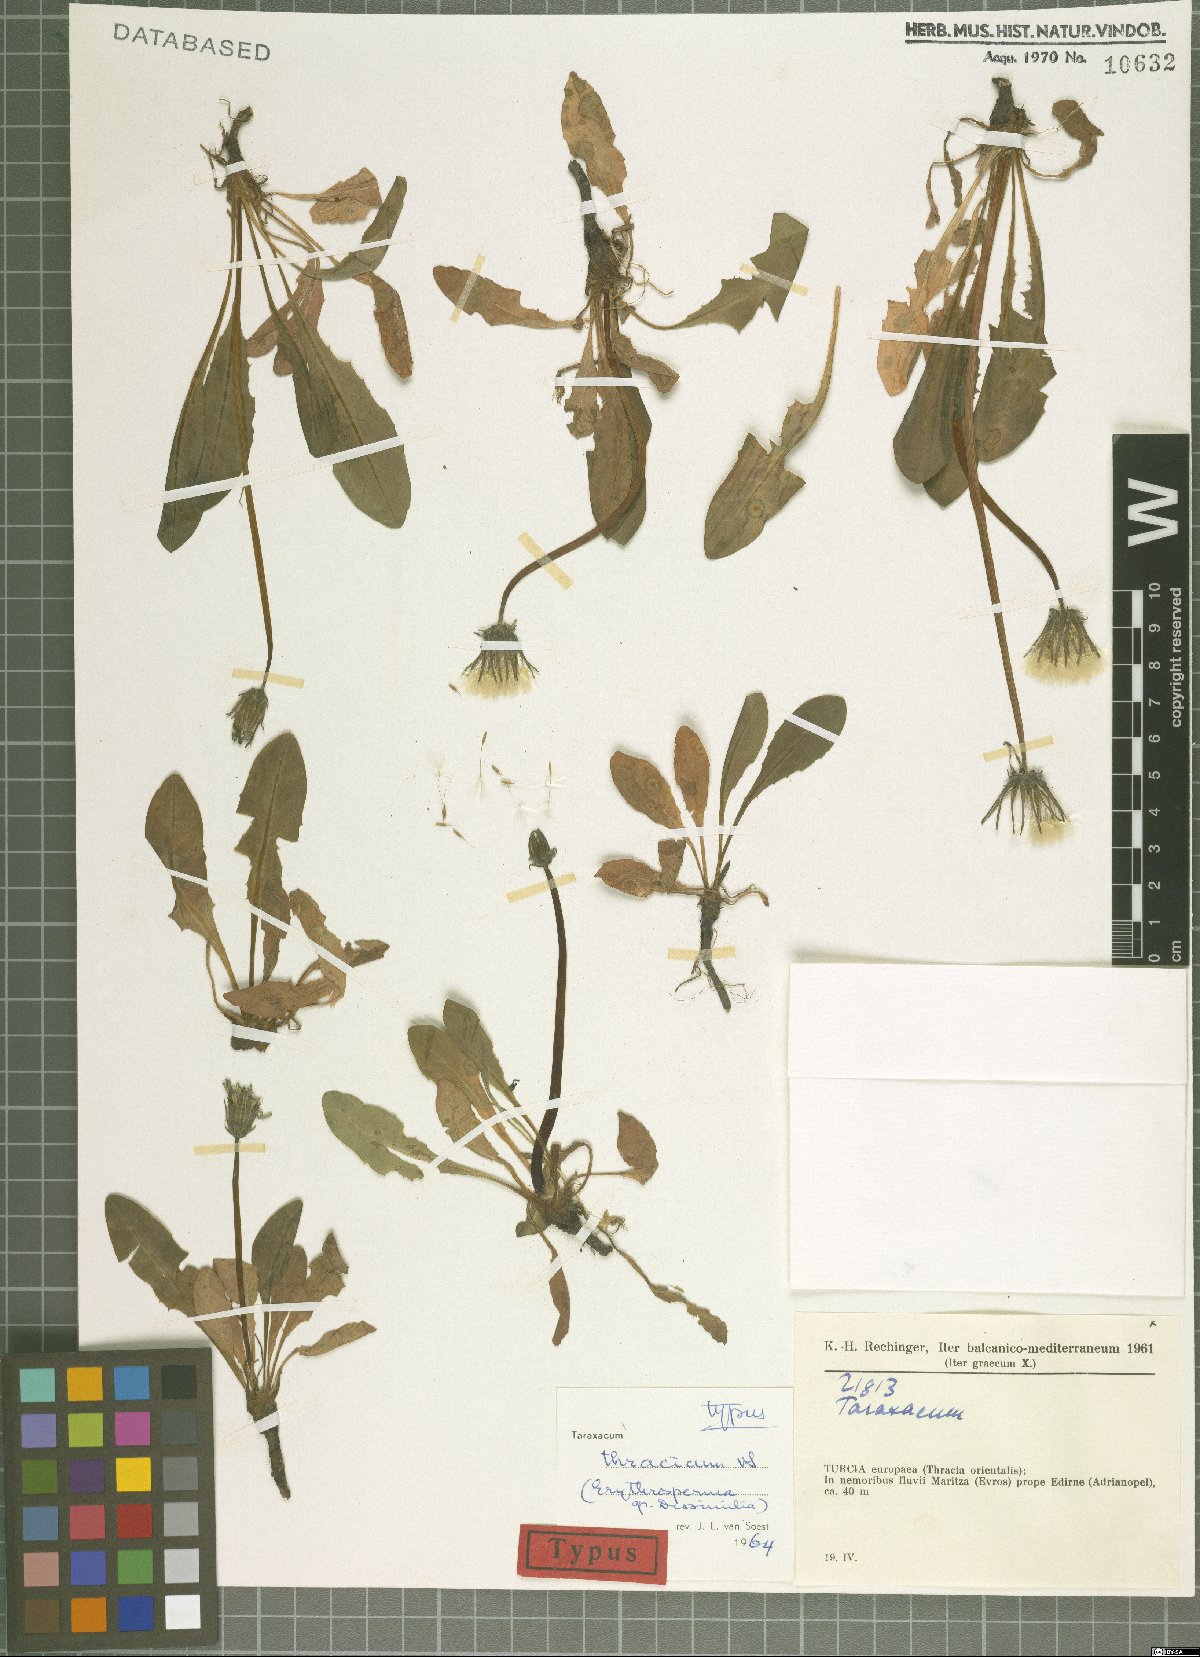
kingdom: Plantae
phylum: Tracheophyta
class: Magnoliopsida
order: Asterales
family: Asteraceae
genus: Taraxacum
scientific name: Taraxacum thracicum
